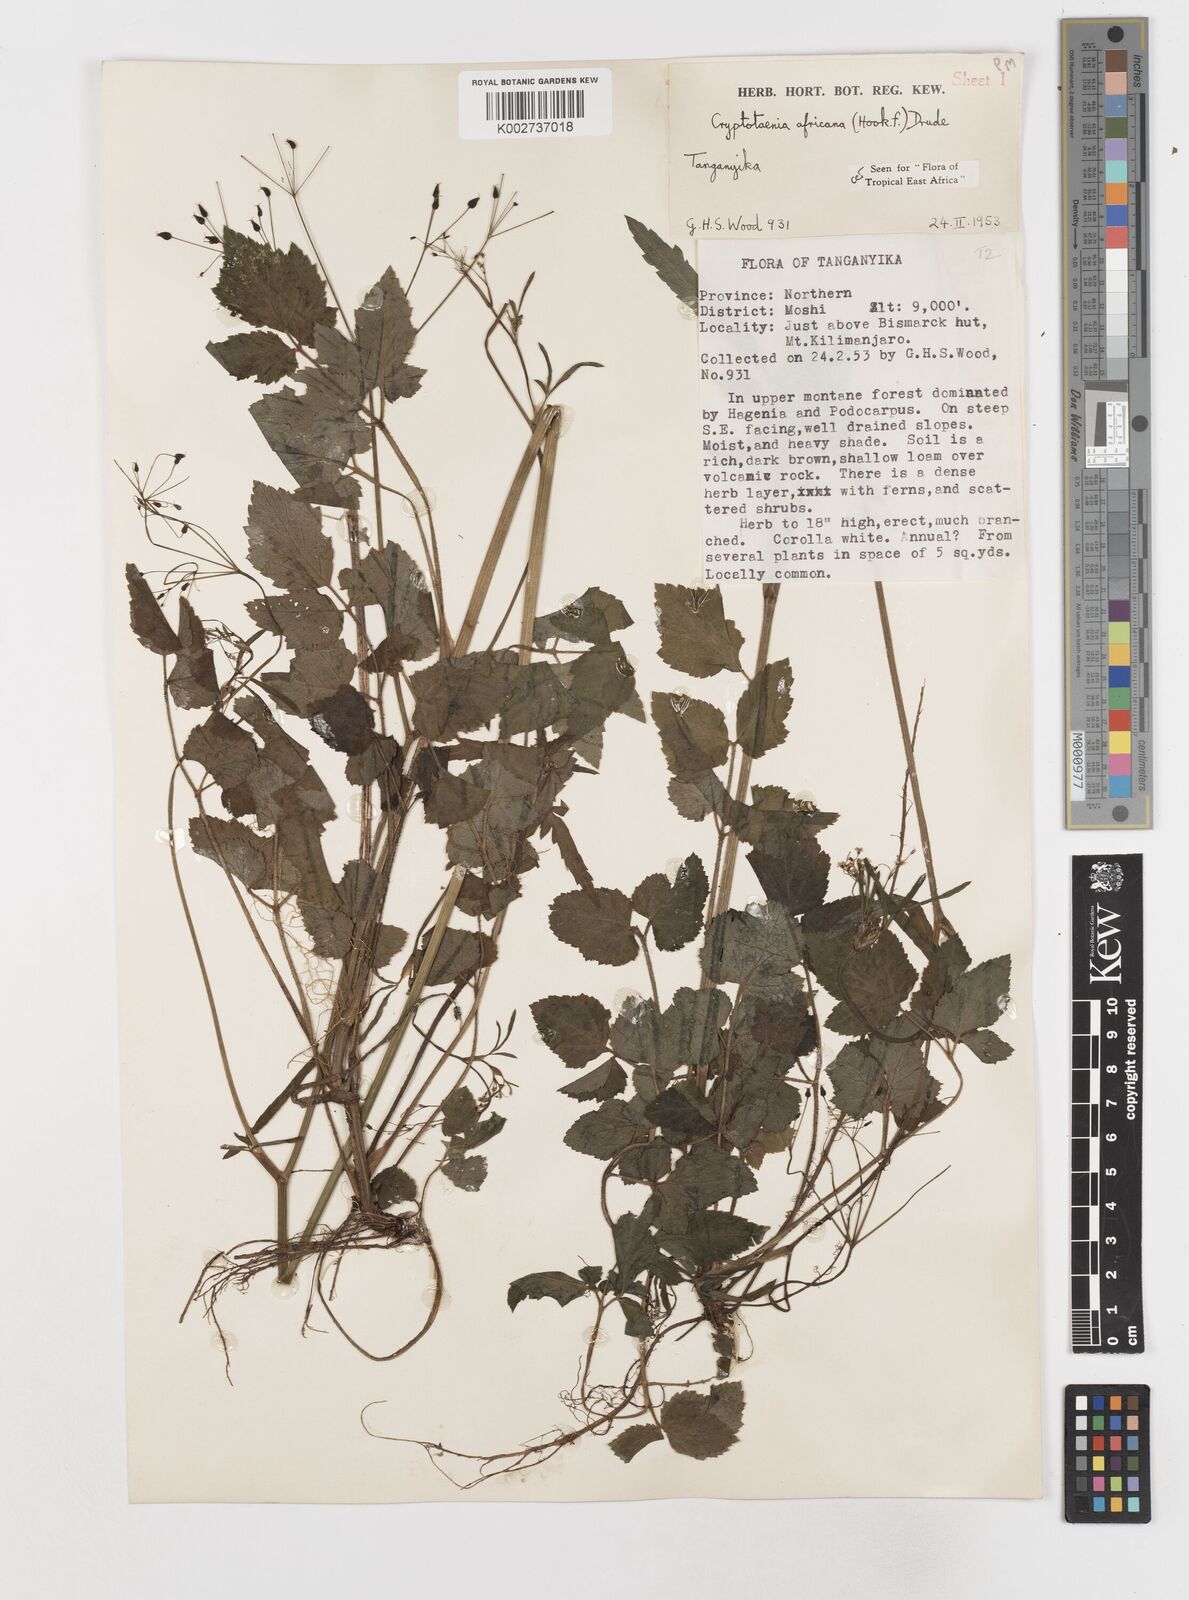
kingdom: Plantae
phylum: Tracheophyta
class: Magnoliopsida
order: Apiales
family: Apiaceae
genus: Cryptotaenia
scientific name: Cryptotaenia africana
